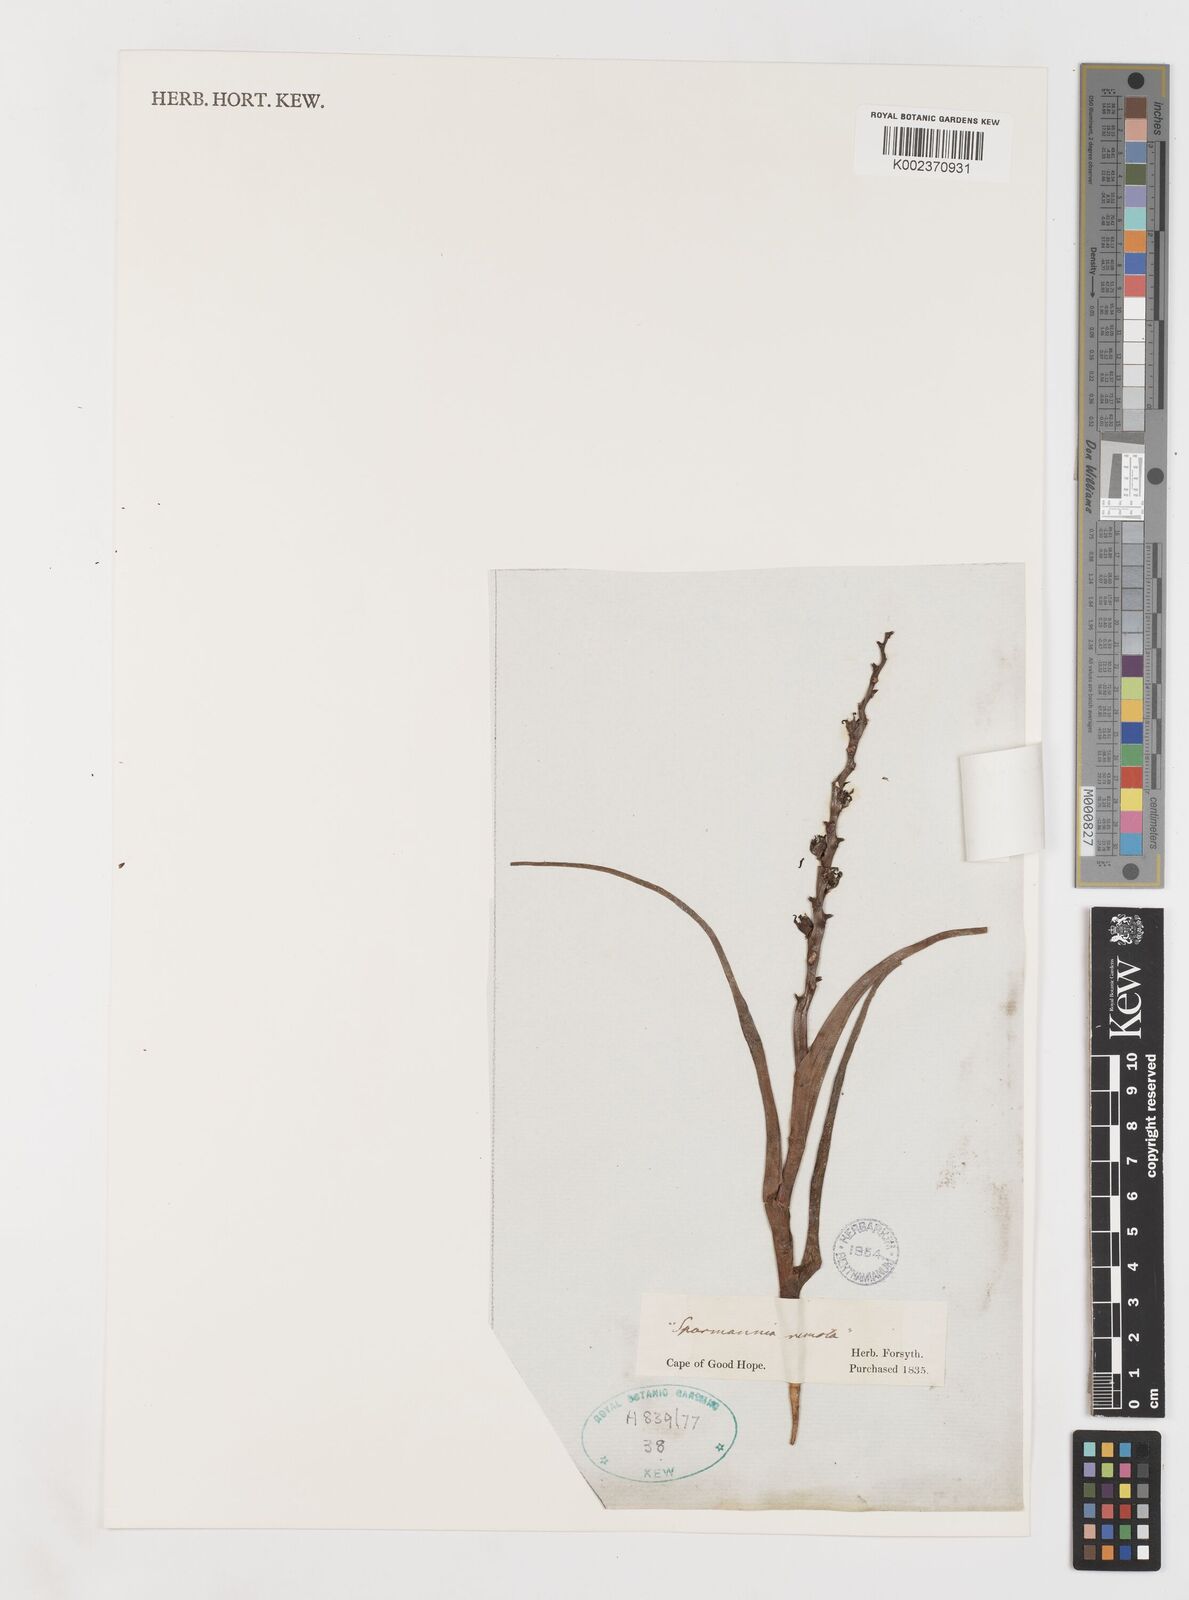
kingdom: Plantae
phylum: Tracheophyta
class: Liliopsida
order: Liliales
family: Colchicaceae
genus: Wurmbea
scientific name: Wurmbea monopetala
